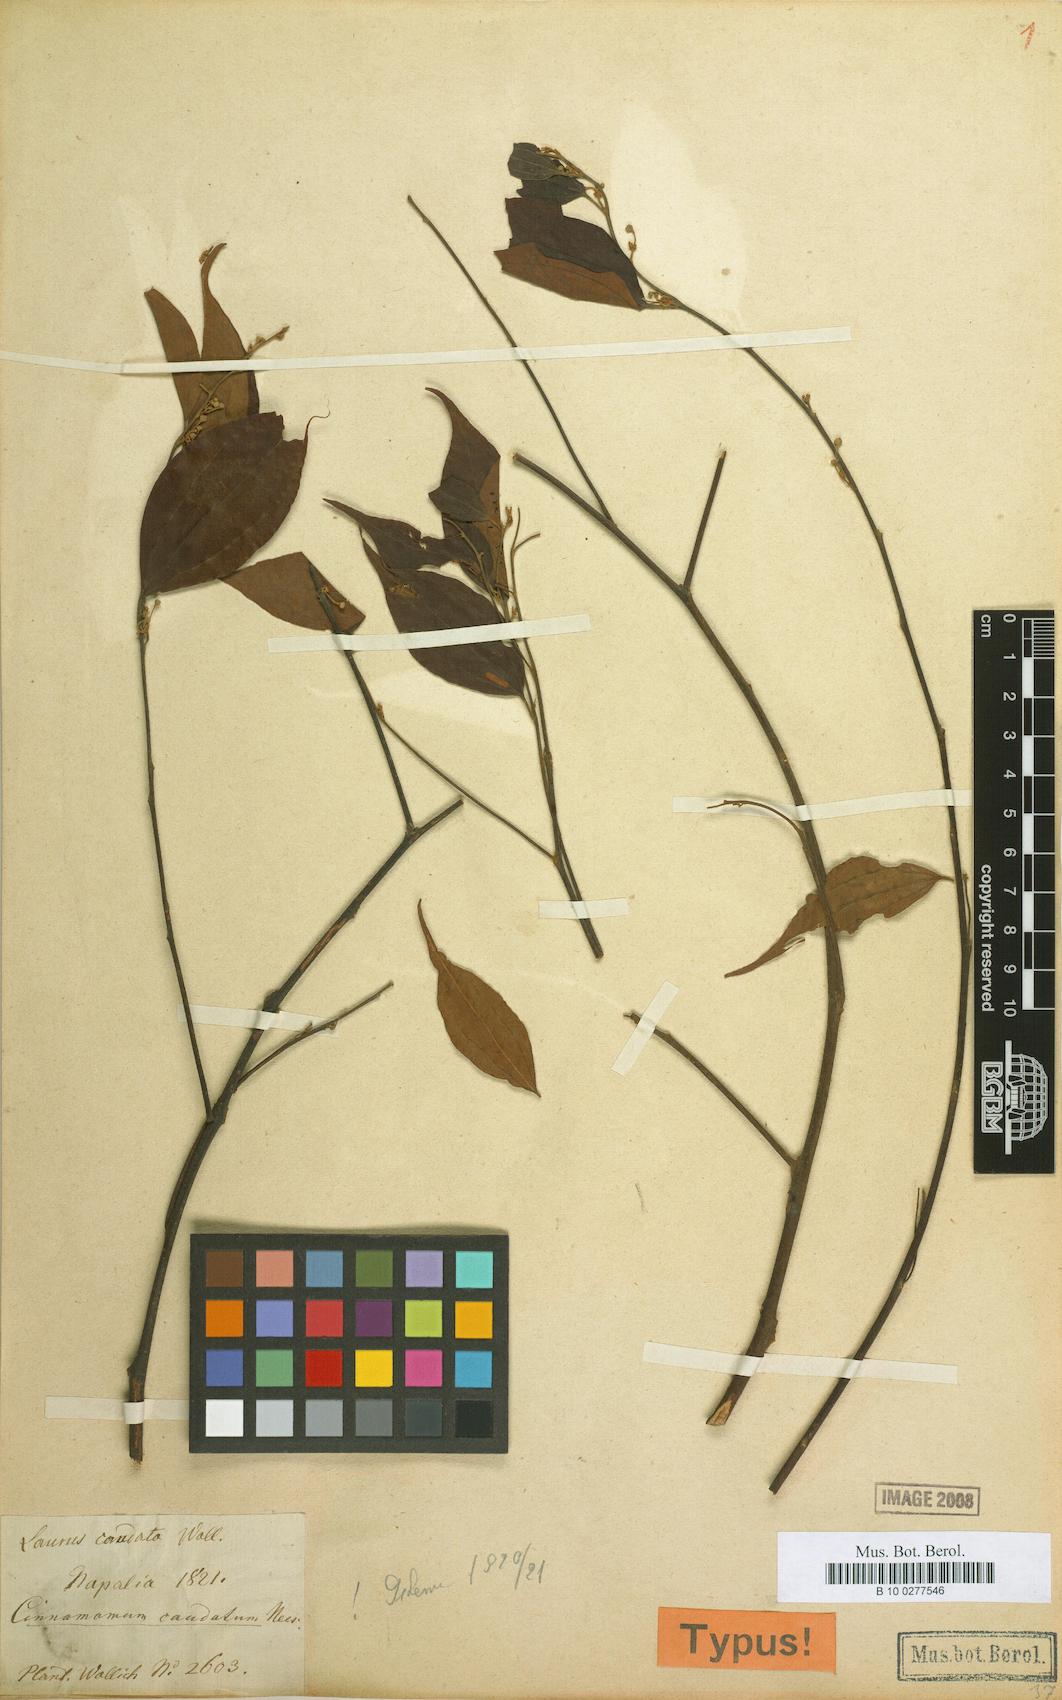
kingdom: Plantae
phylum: Tracheophyta
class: Magnoliopsida
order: Laurales
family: Lauraceae
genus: Neocinnamomum
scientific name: Neocinnamomum caudatum
